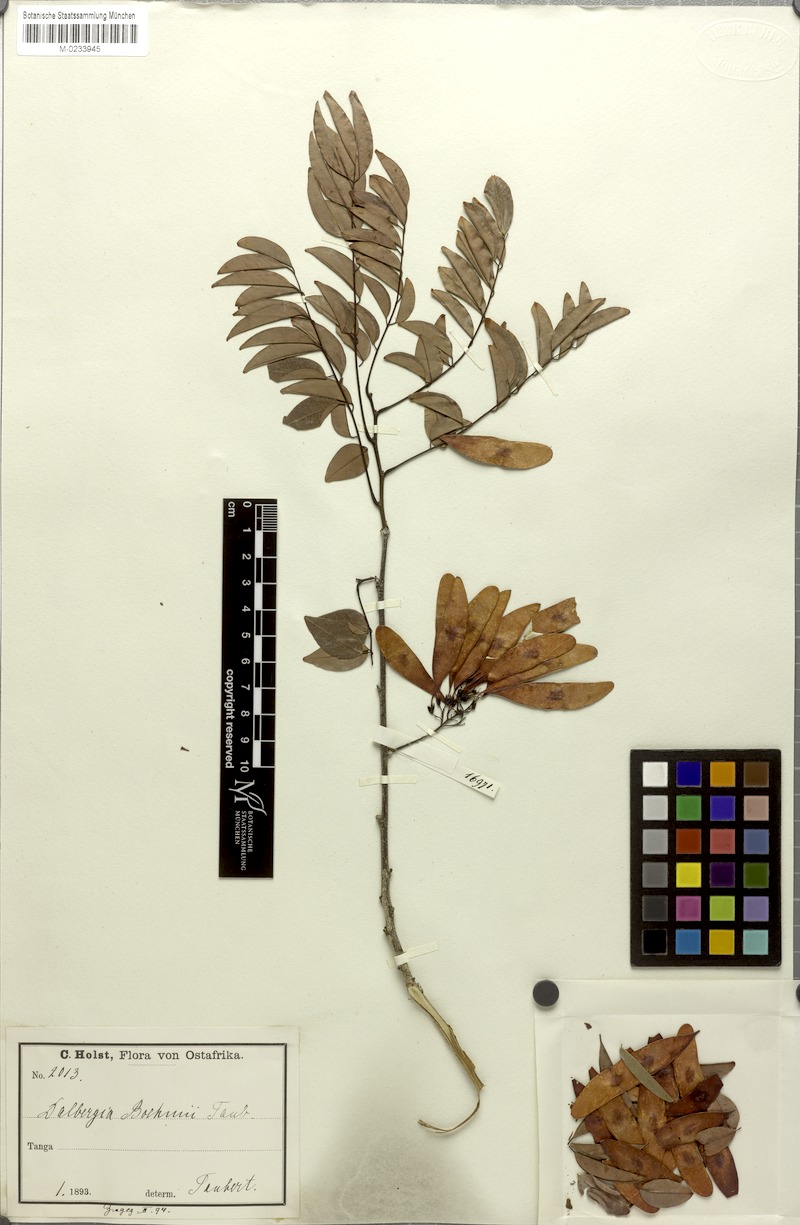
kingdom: Plantae
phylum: Tracheophyta
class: Magnoliopsida
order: Fabales
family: Fabaceae
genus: Dalbergia
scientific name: Dalbergia boehmii
